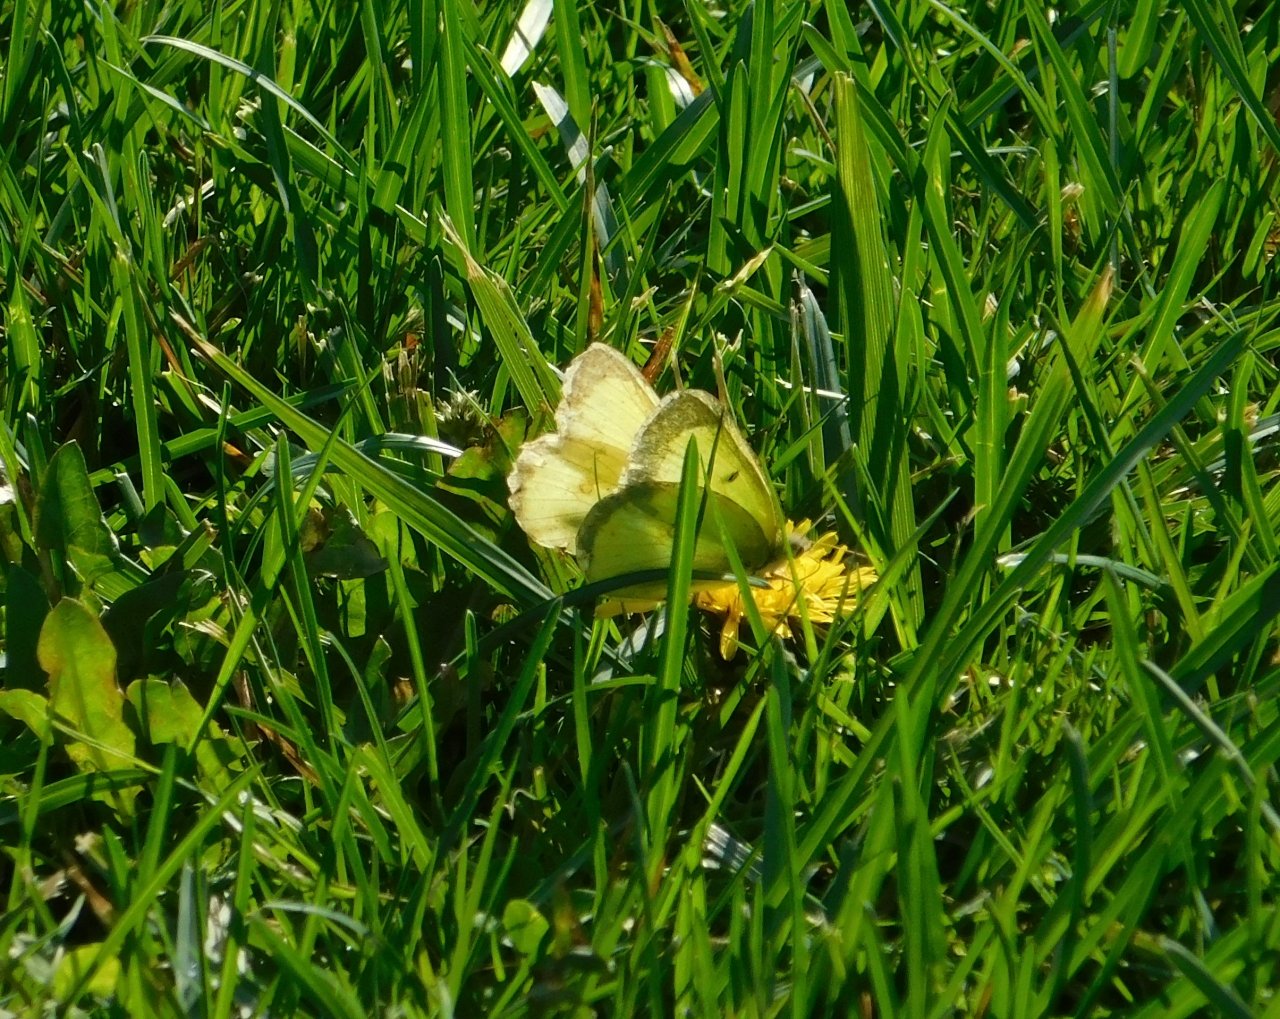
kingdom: Animalia
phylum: Arthropoda
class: Insecta
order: Lepidoptera
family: Pieridae
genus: Colias
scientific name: Colias philodice
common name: Clouded Sulphur
